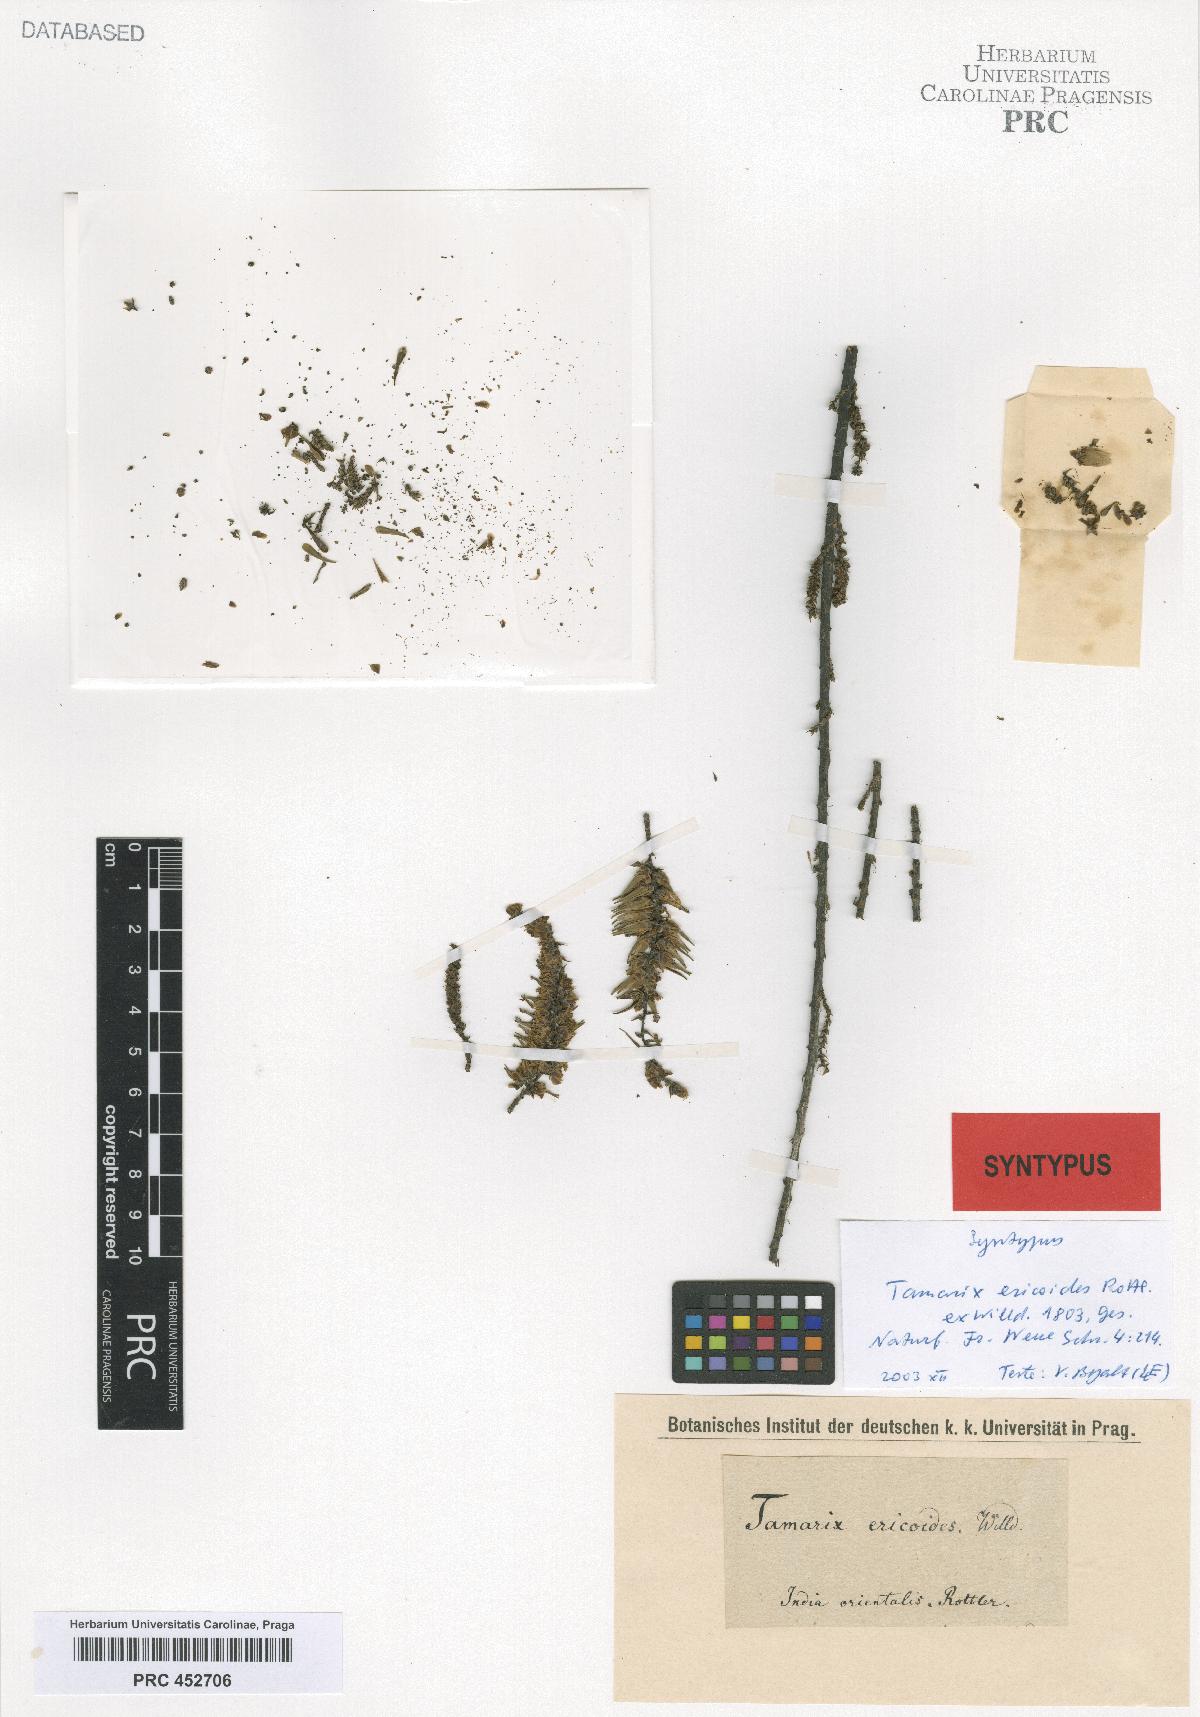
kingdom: Plantae
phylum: Tracheophyta
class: Magnoliopsida
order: Caryophyllales
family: Tamaricaceae
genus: Tamarix
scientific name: Tamarix ericoides
